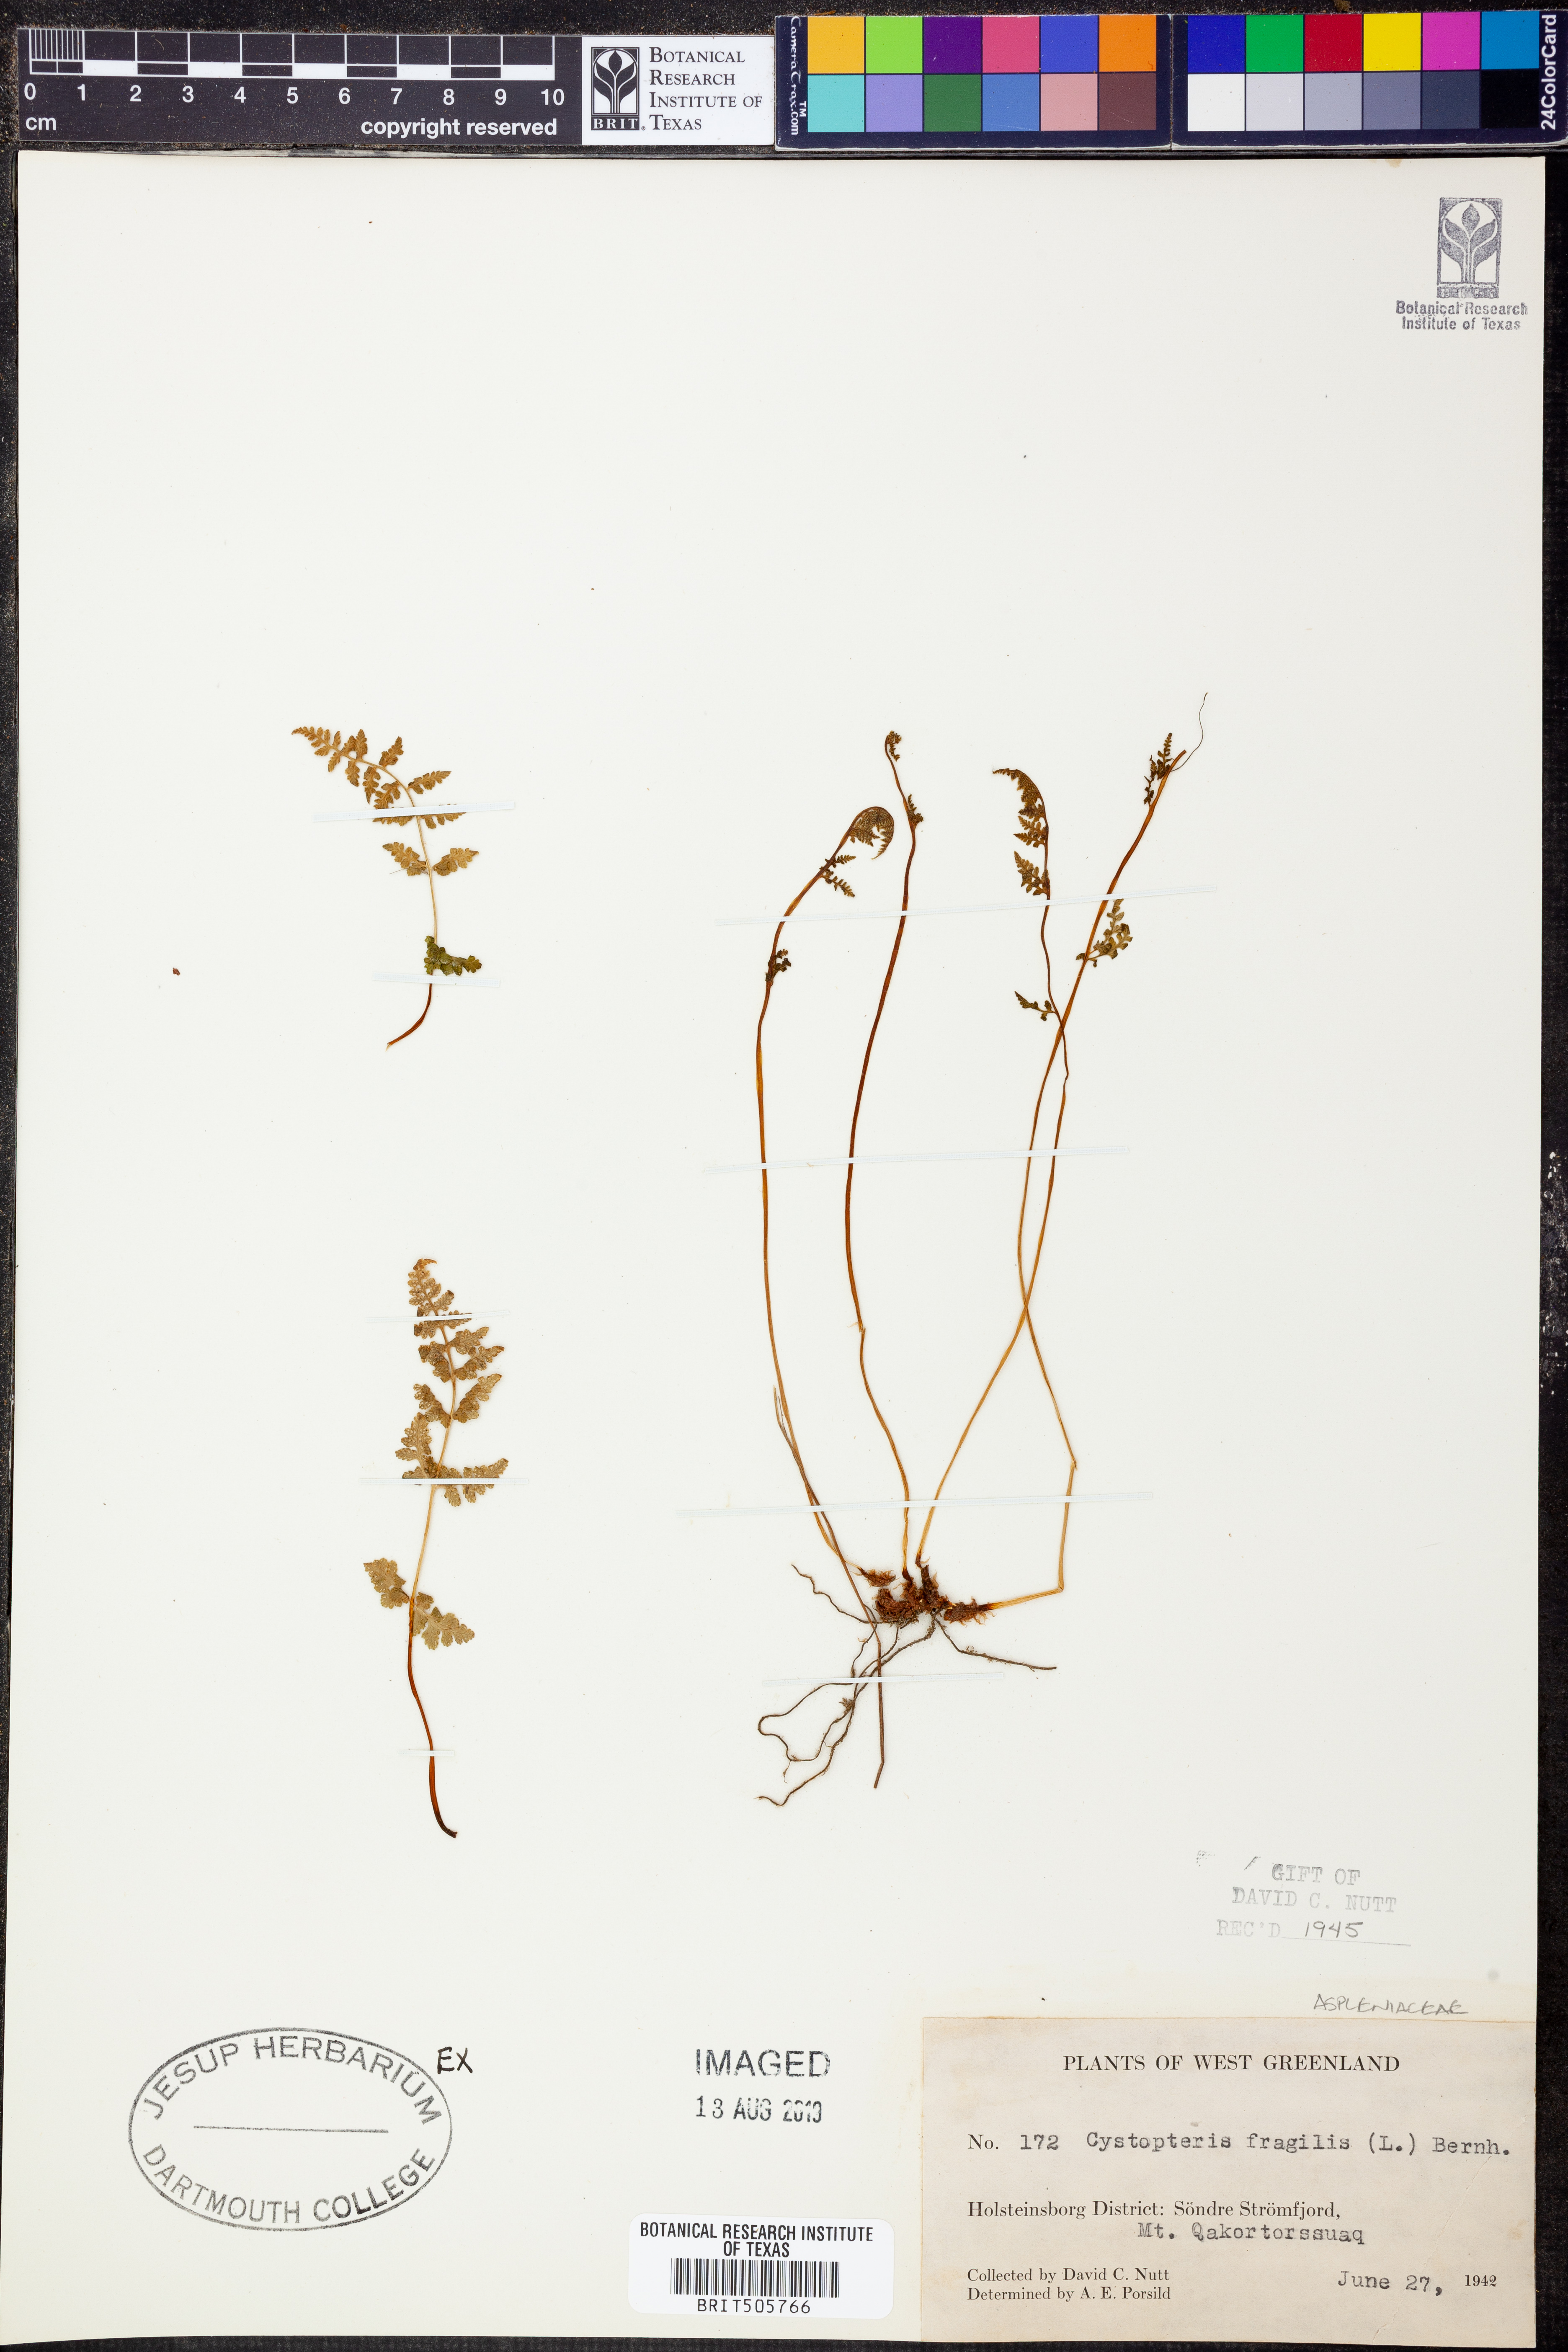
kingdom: Plantae
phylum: Tracheophyta
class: Polypodiopsida
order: Polypodiales
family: Cystopteridaceae
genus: Cystopteris
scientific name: Cystopteris fragilis
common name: Brittle bladder fern
